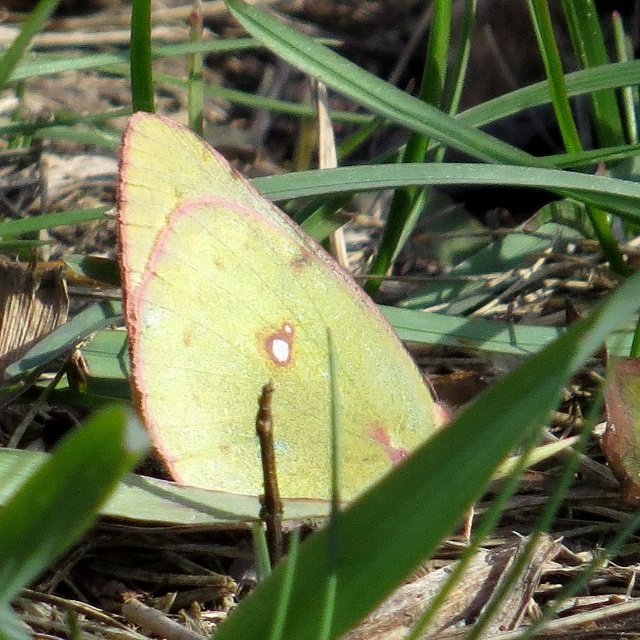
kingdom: Animalia
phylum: Arthropoda
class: Insecta
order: Lepidoptera
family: Pieridae
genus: Colias
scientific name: Colias philodice
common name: Clouded Sulphur
